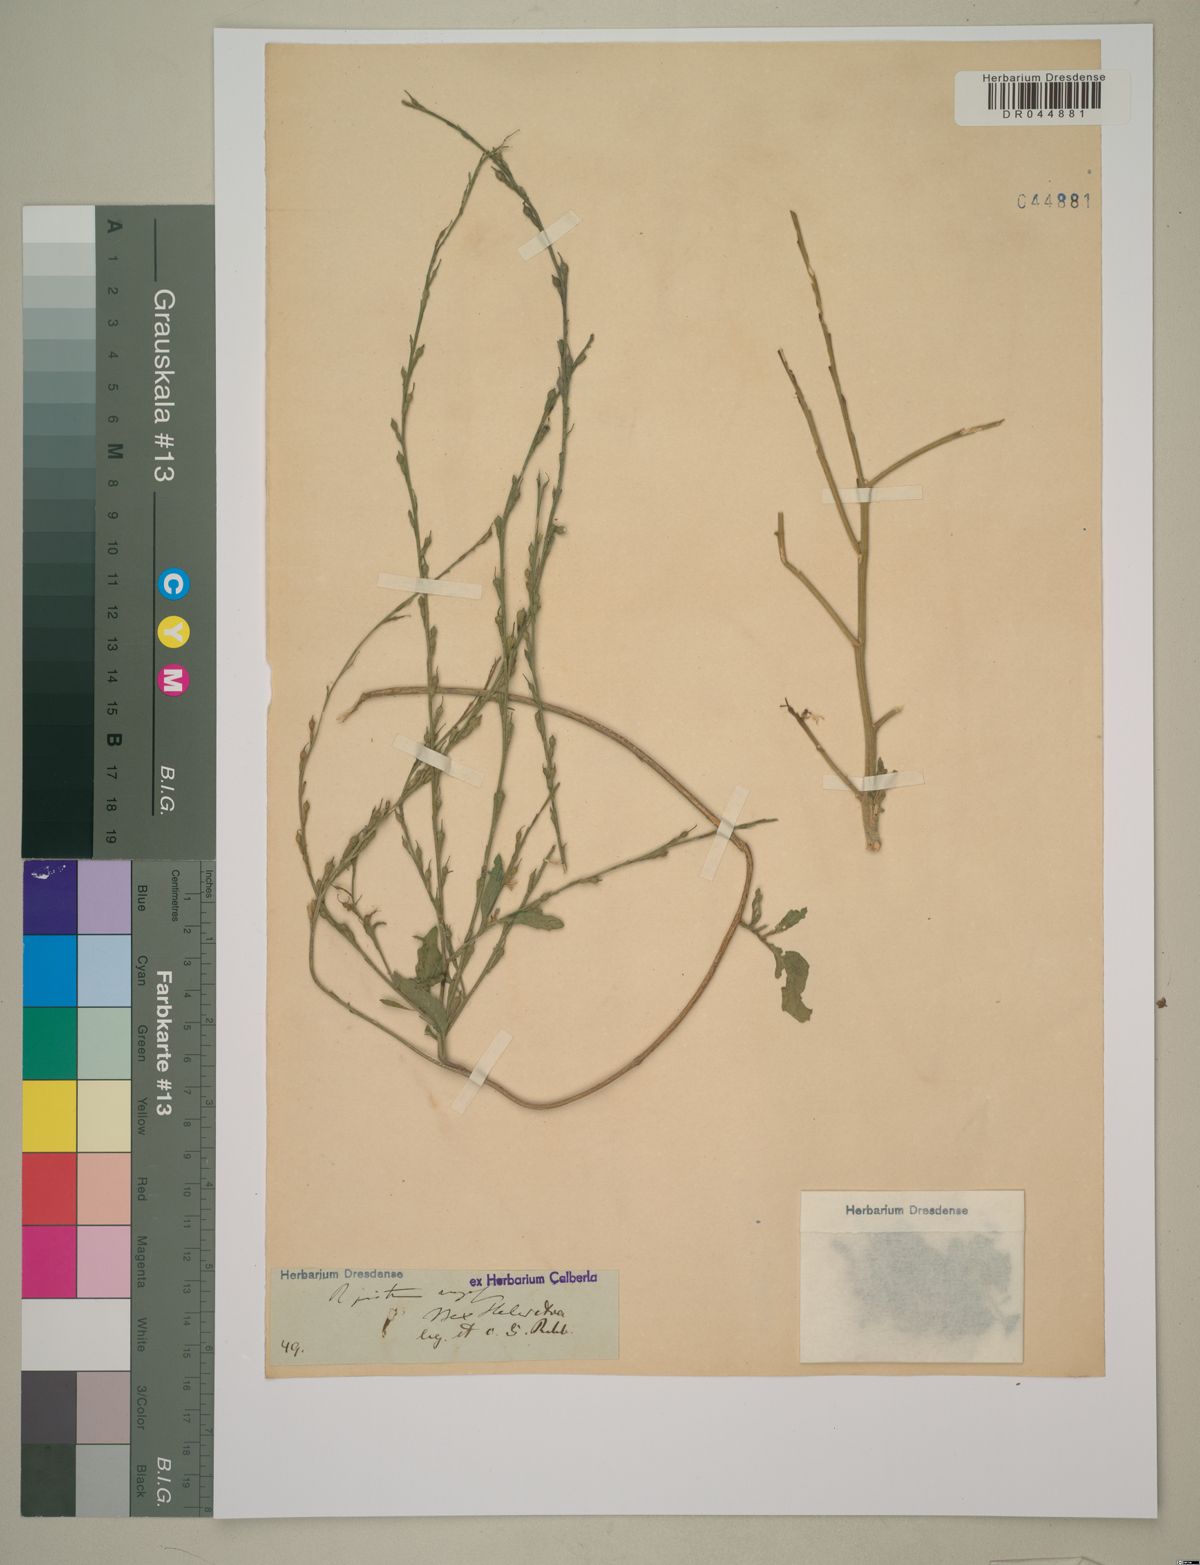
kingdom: Plantae
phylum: Tracheophyta
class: Magnoliopsida
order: Brassicales
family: Brassicaceae
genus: Rapistrum
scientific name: Rapistrum rugosum
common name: Annual bastardcabbage
